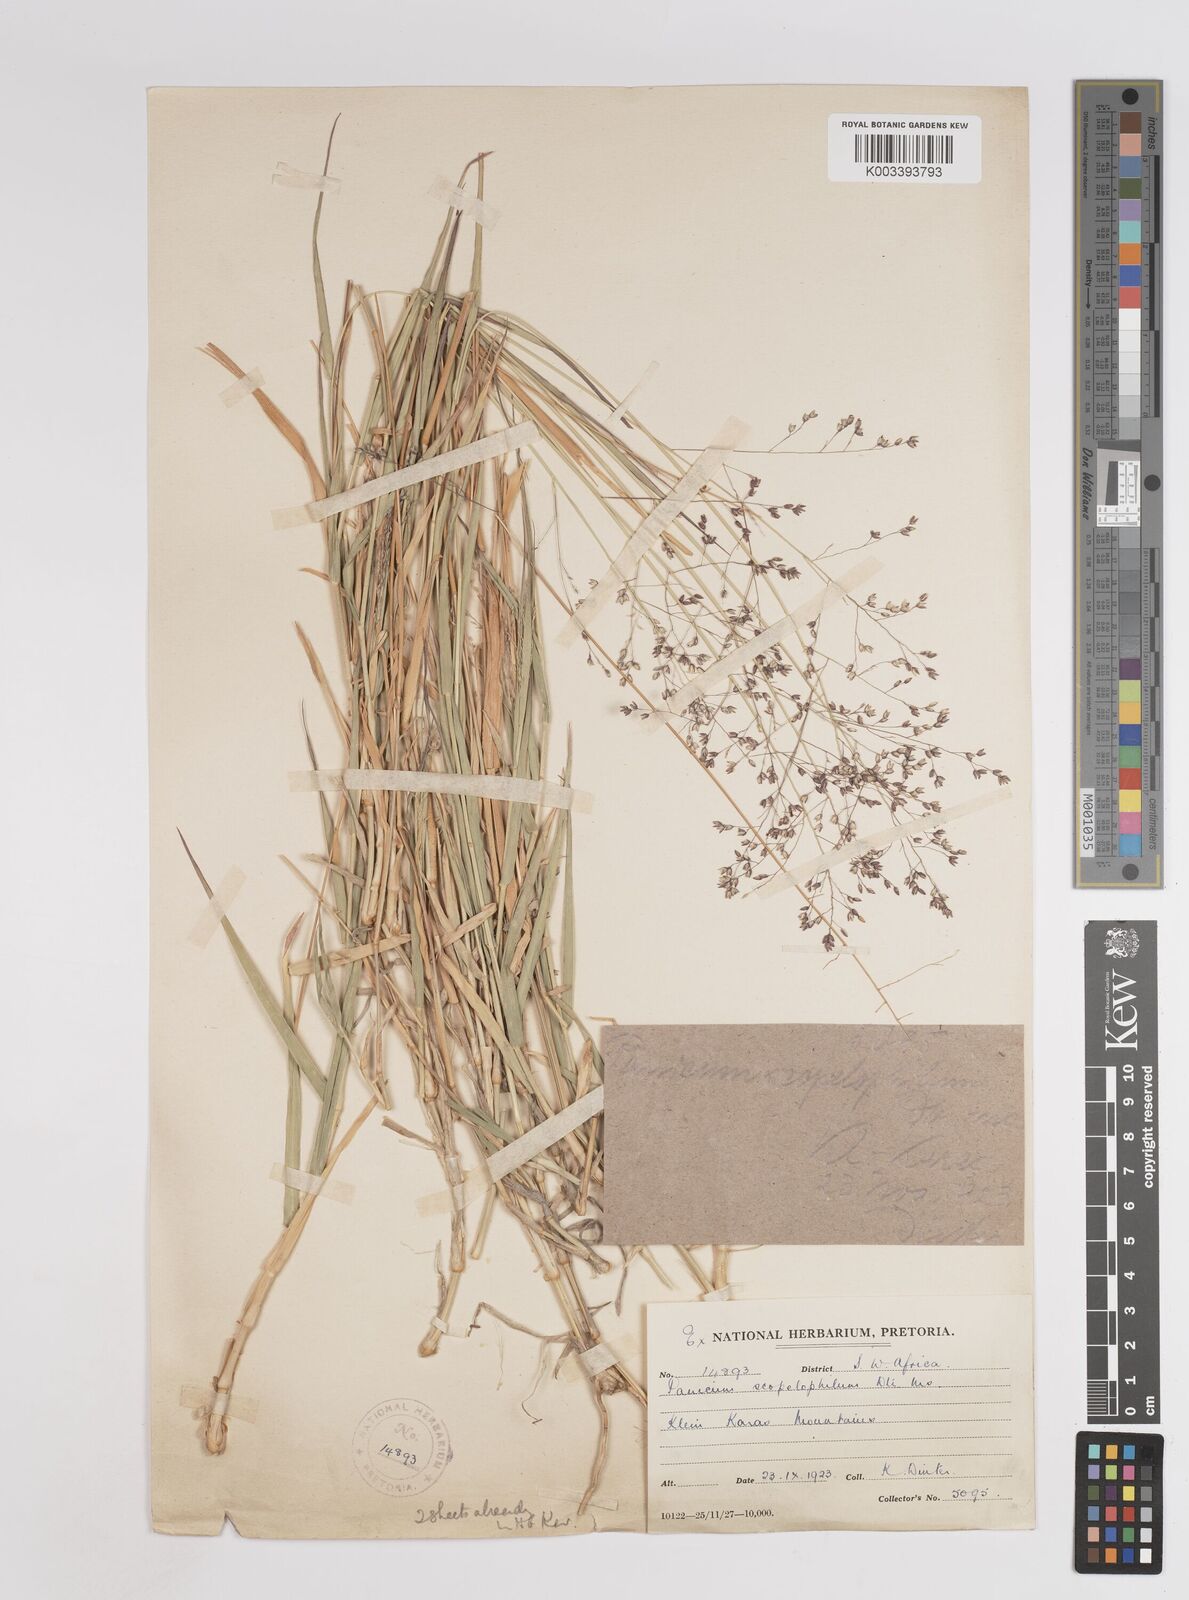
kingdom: Plantae
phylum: Tracheophyta
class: Liliopsida
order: Poales
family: Poaceae
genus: Panicum
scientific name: Panicum
